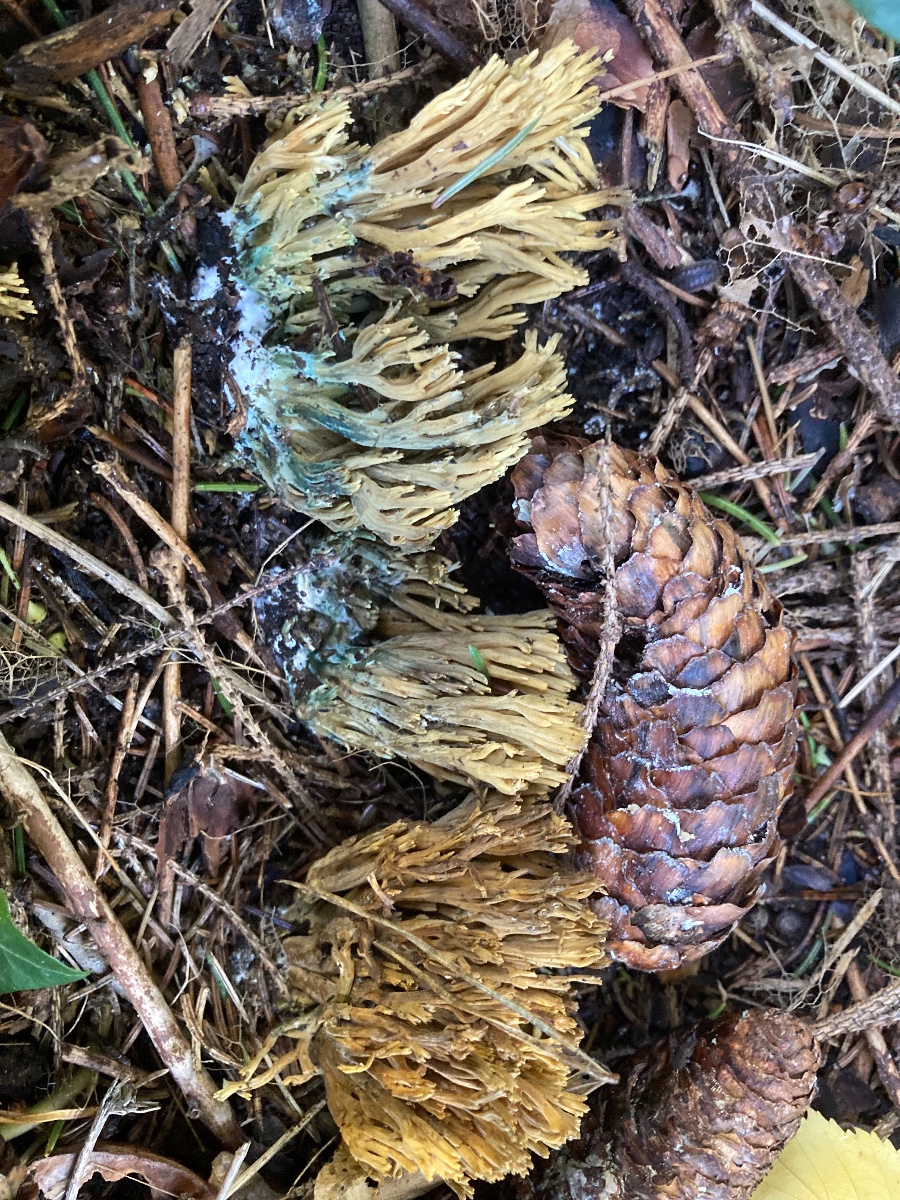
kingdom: Fungi
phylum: Basidiomycota
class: Agaricomycetes
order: Gomphales
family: Gomphaceae
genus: Phaeoclavulina
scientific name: Phaeoclavulina abietina
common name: gulgrøn koralsvamp
